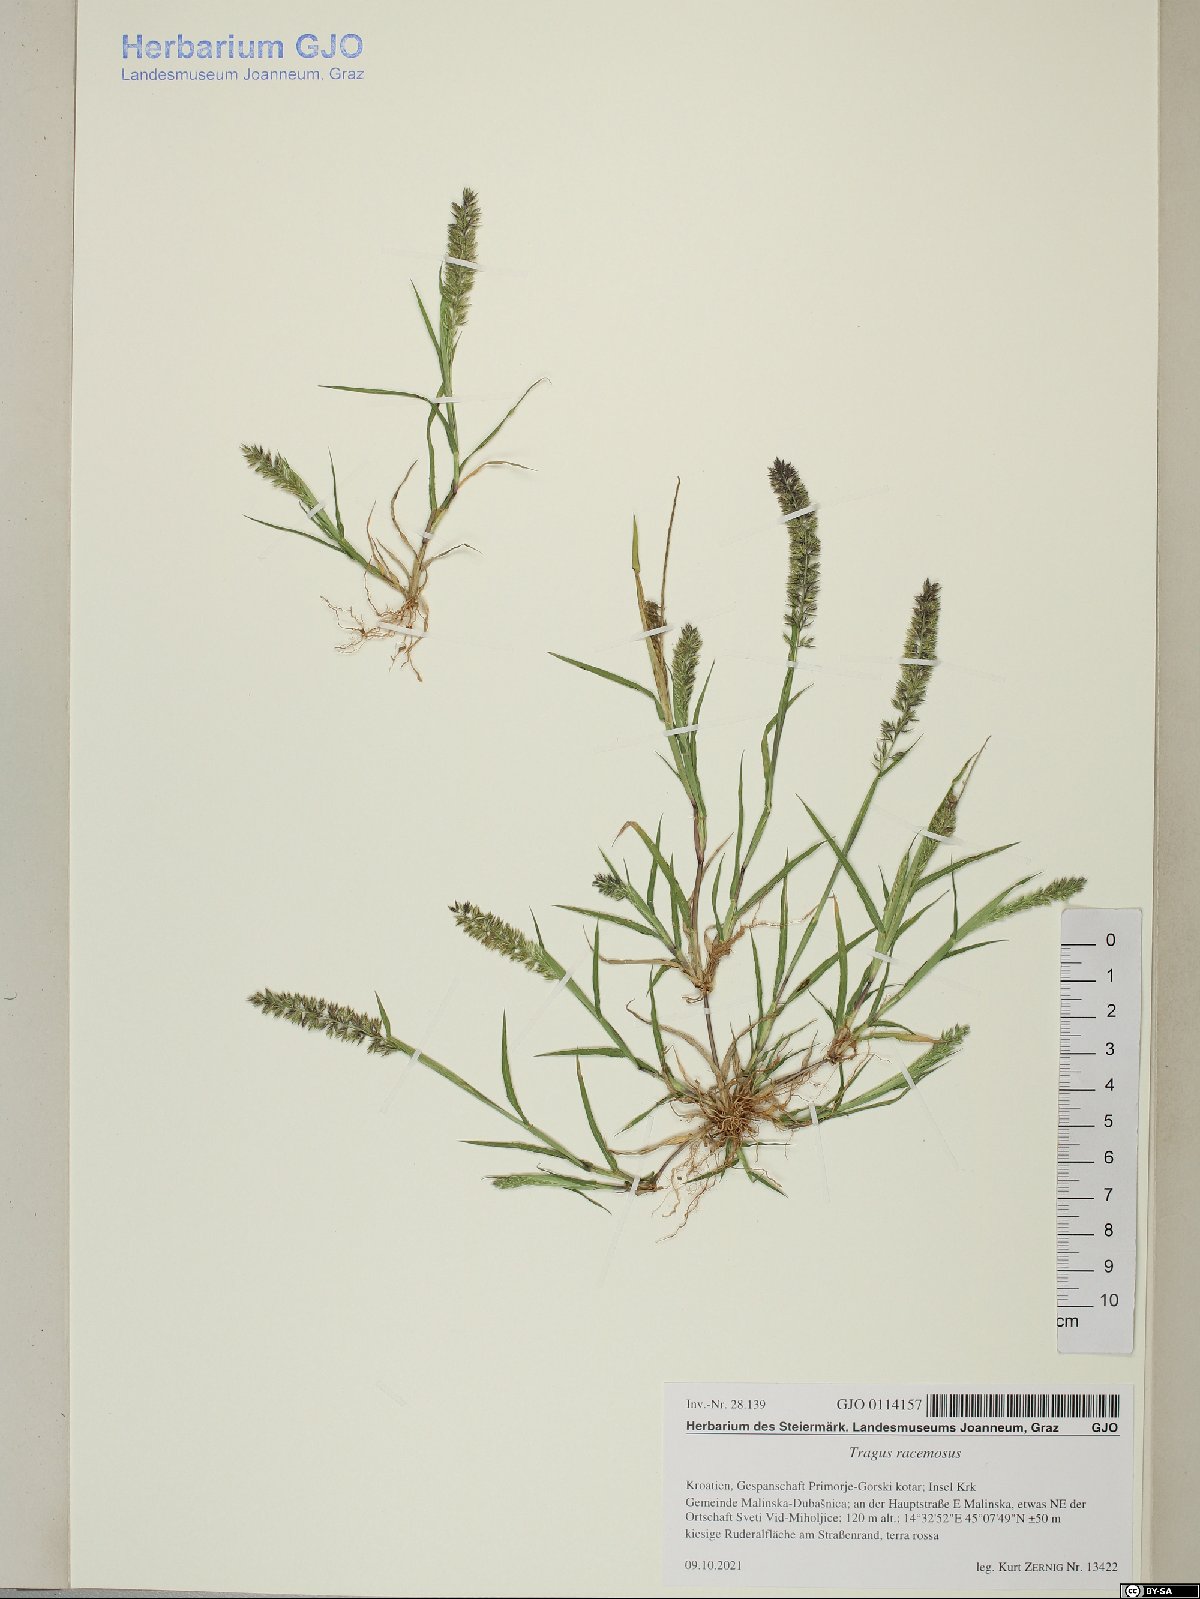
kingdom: Plantae
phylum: Tracheophyta
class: Liliopsida
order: Poales
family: Poaceae
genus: Tragus
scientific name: Tragus racemosus
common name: European bur-grass
